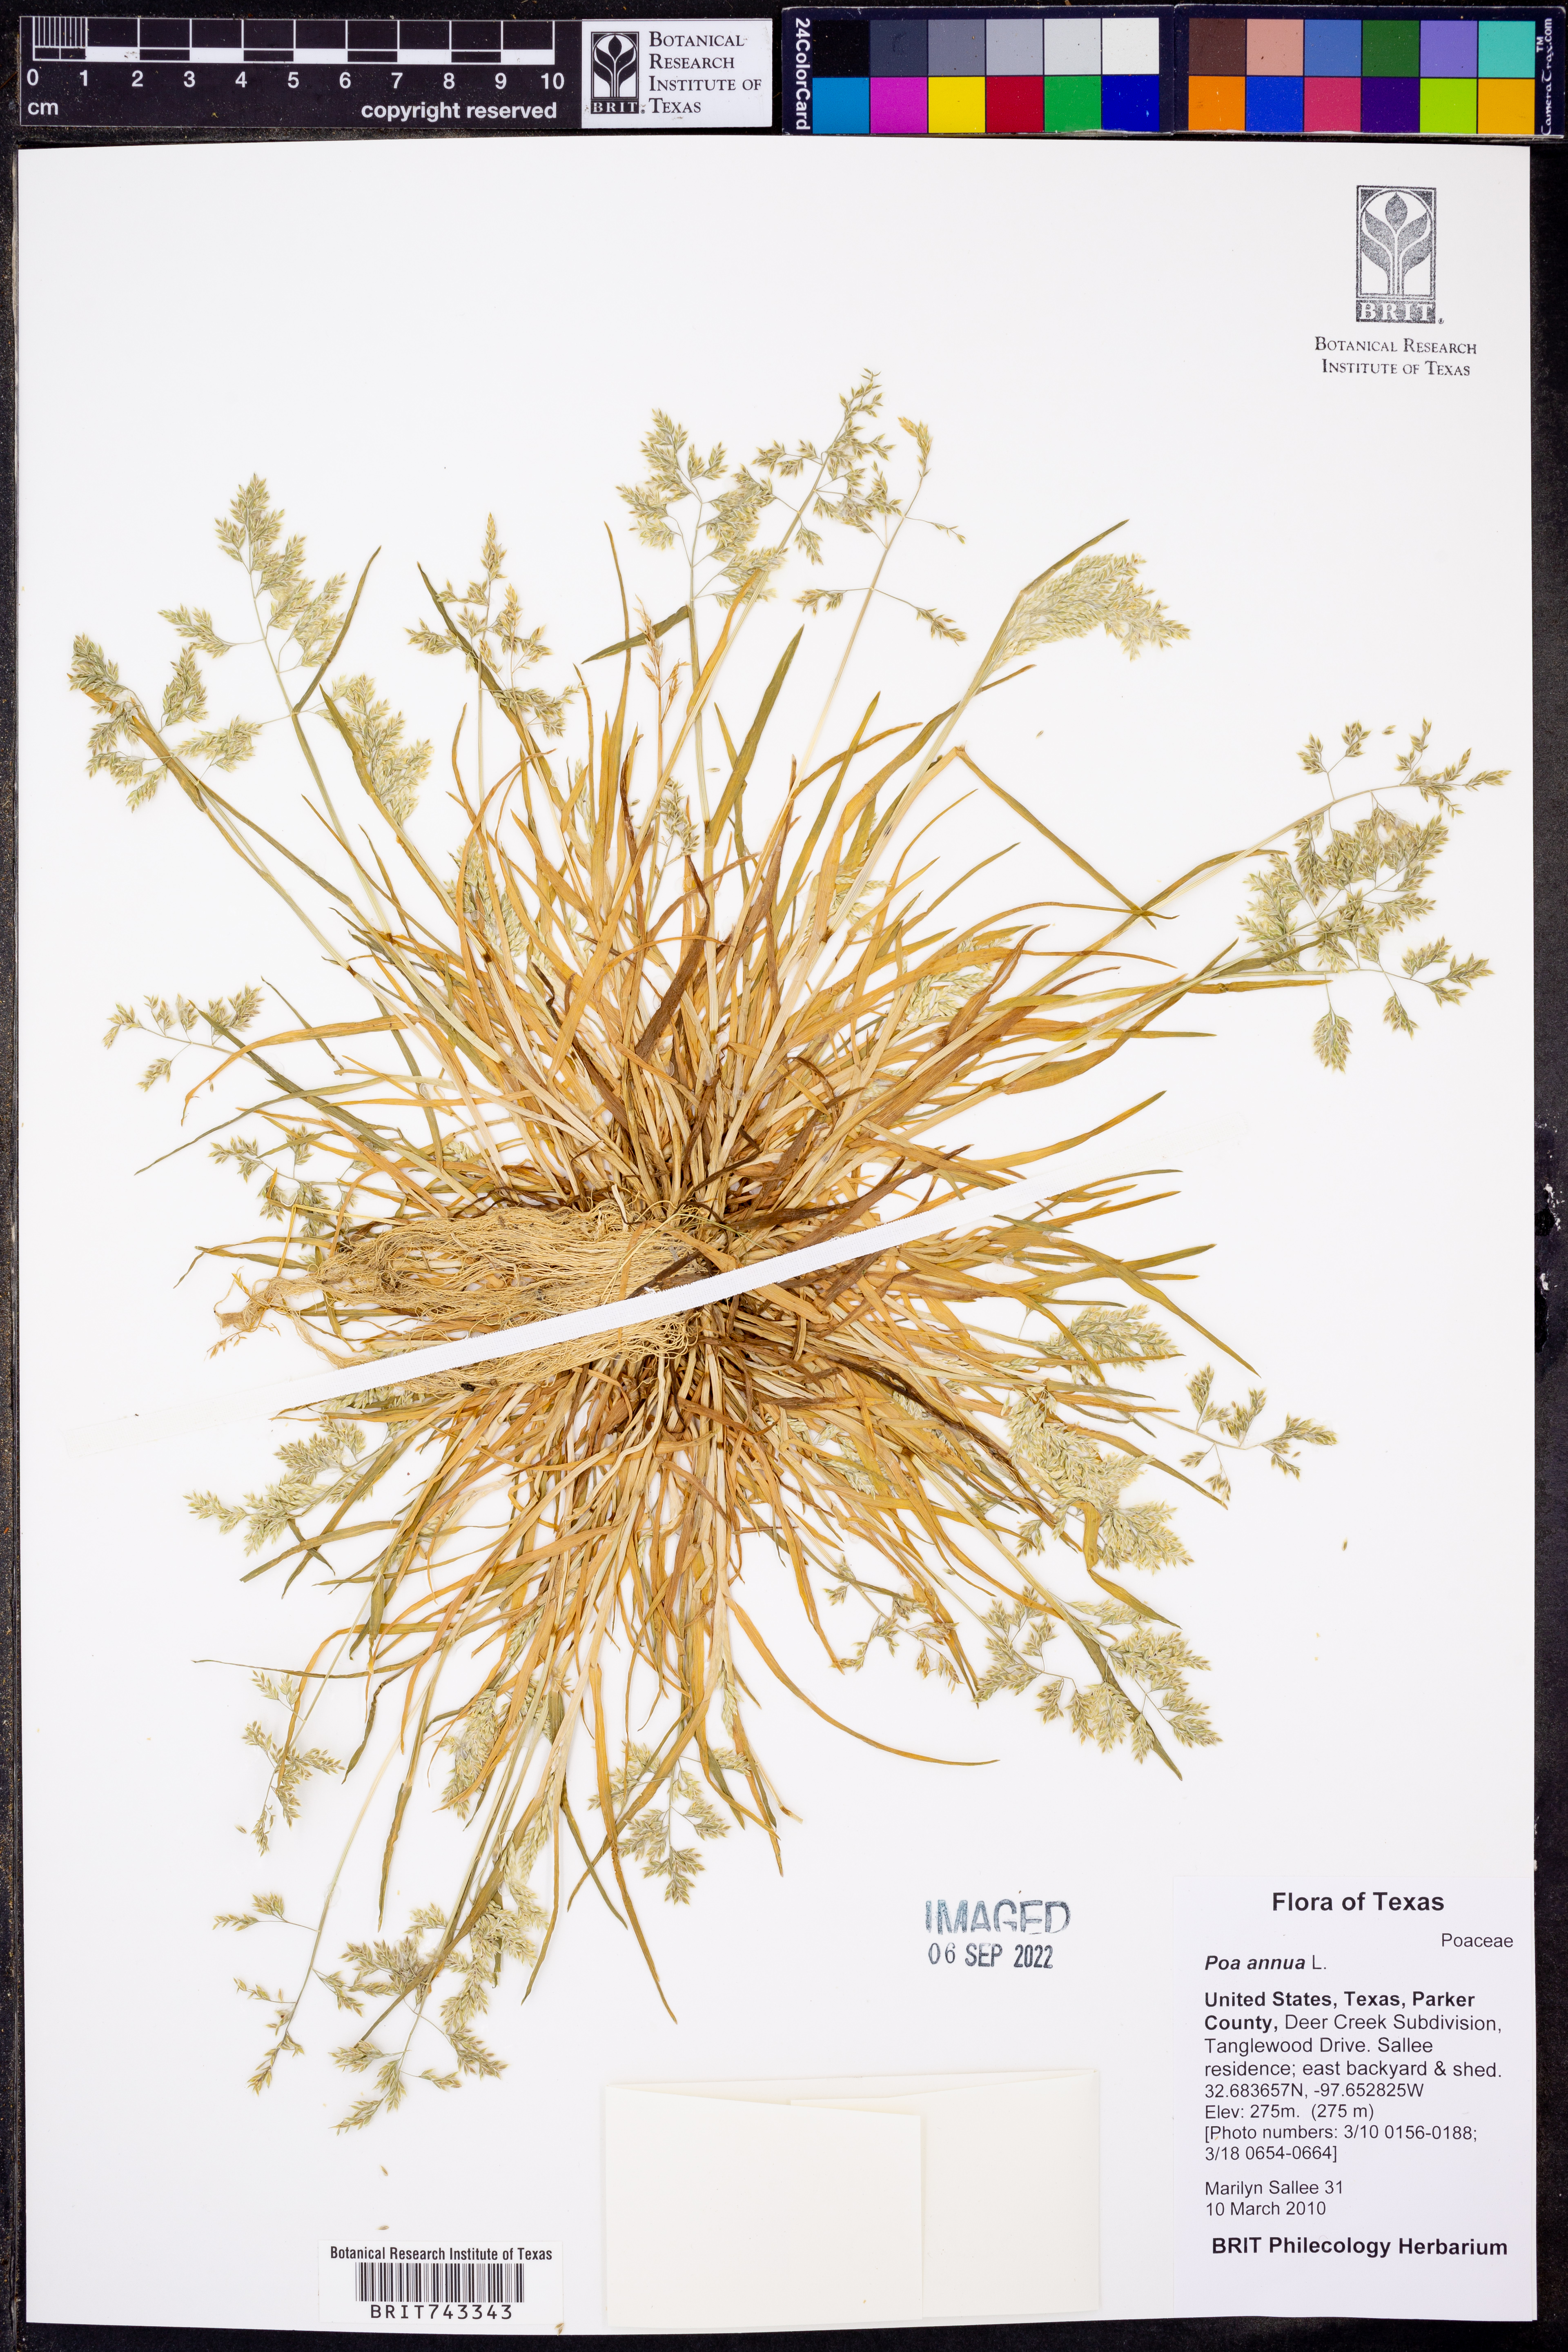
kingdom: Plantae
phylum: Tracheophyta
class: Liliopsida
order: Poales
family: Poaceae
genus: Poa
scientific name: Poa annua
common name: Annual bluegrass
